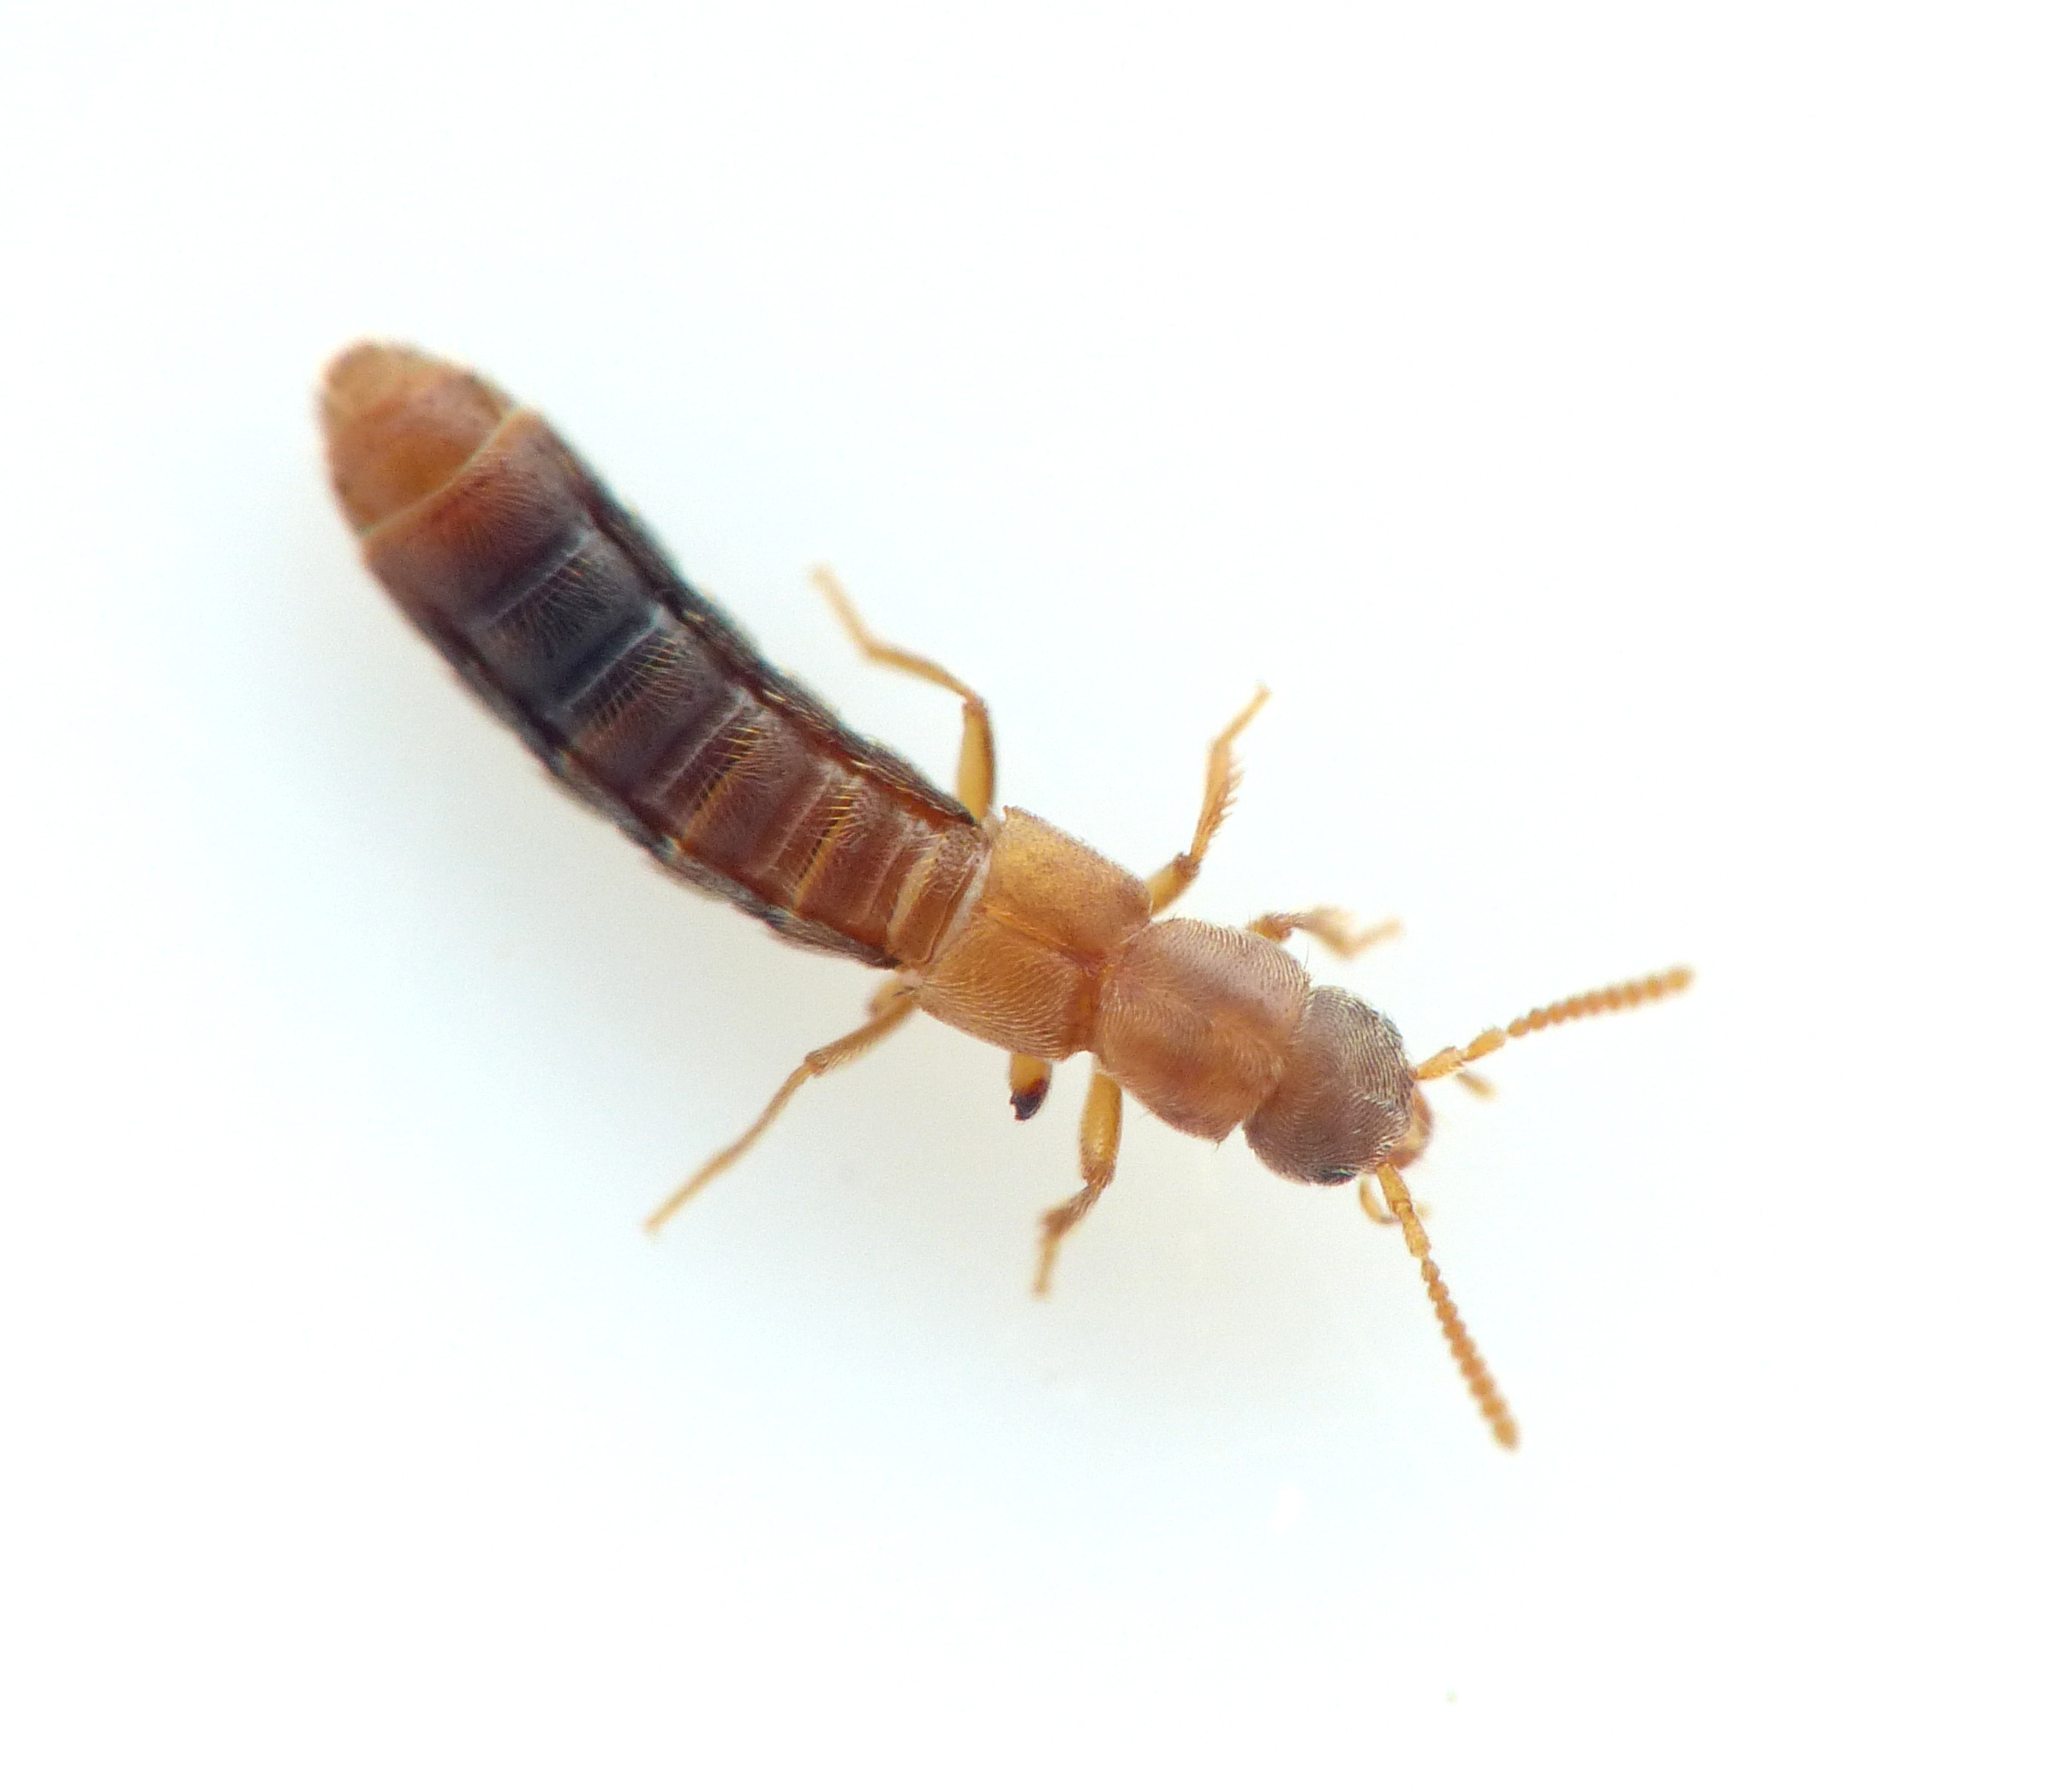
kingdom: Animalia
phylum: Arthropoda
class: Insecta
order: Coleoptera
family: Staphylinidae
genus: Phytosus
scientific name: Phytosus balticus
